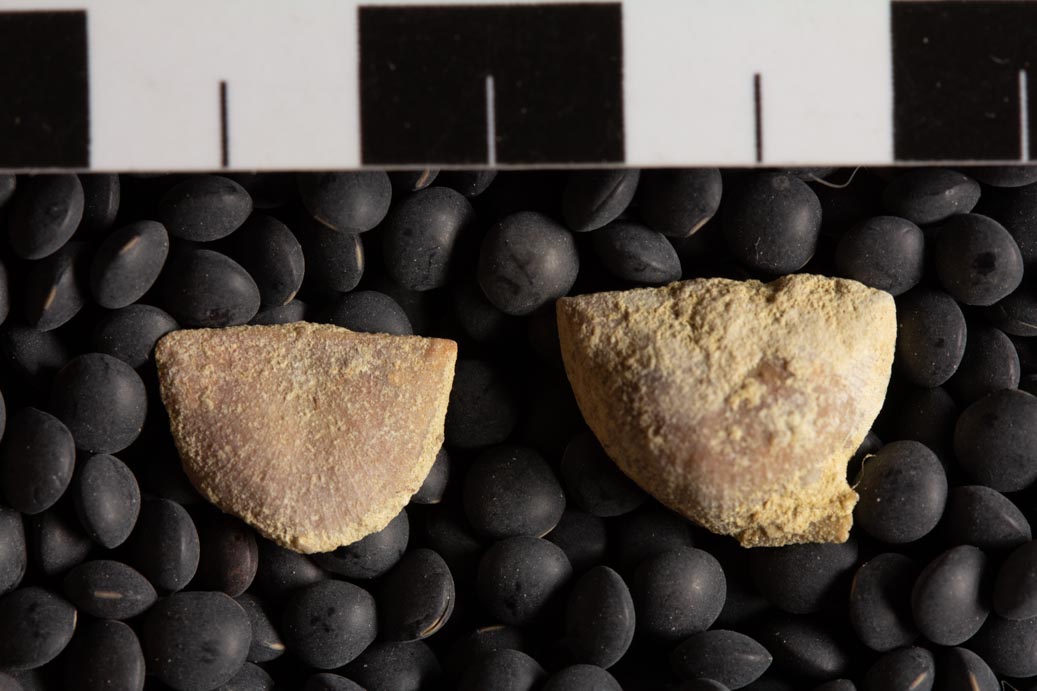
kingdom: Animalia
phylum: Brachiopoda
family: Strophomenidae
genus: Strophomena
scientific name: Strophomena
